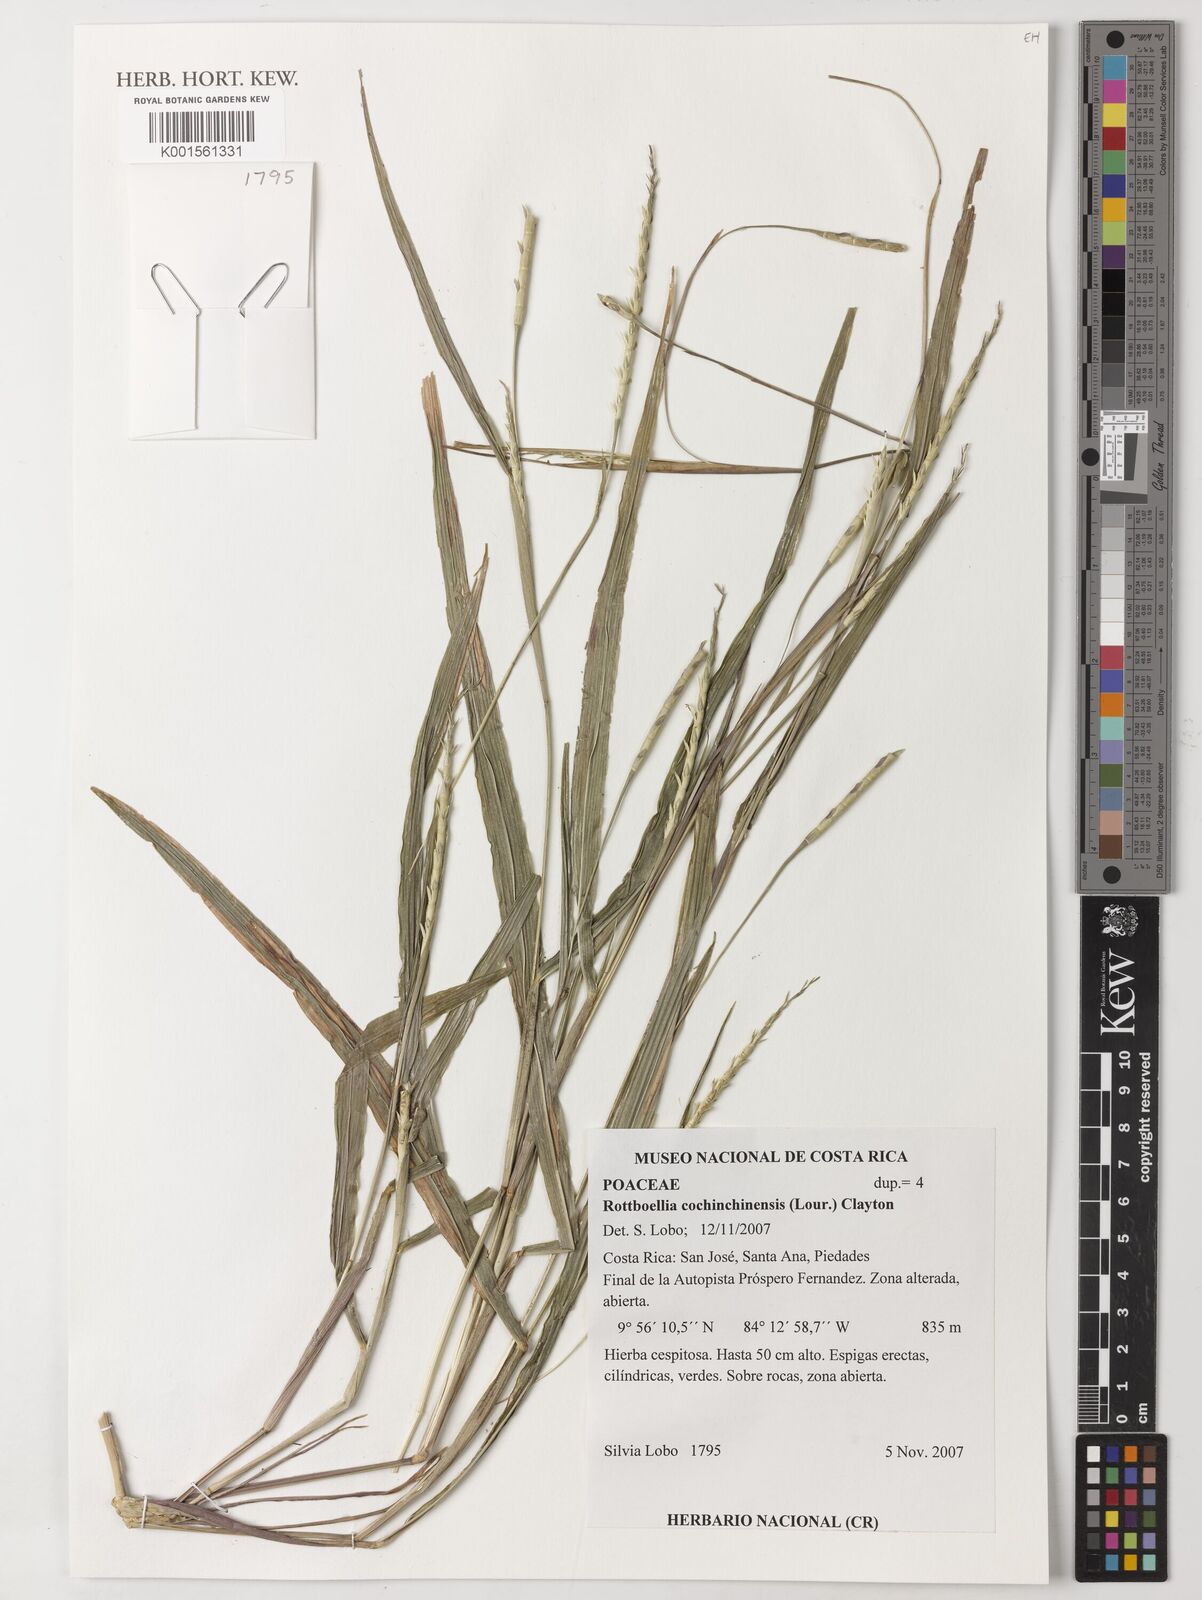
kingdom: Plantae
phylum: Tracheophyta
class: Liliopsida
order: Poales
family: Poaceae
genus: Rottboellia
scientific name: Rottboellia cochinchinensis
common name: Itchgrass
